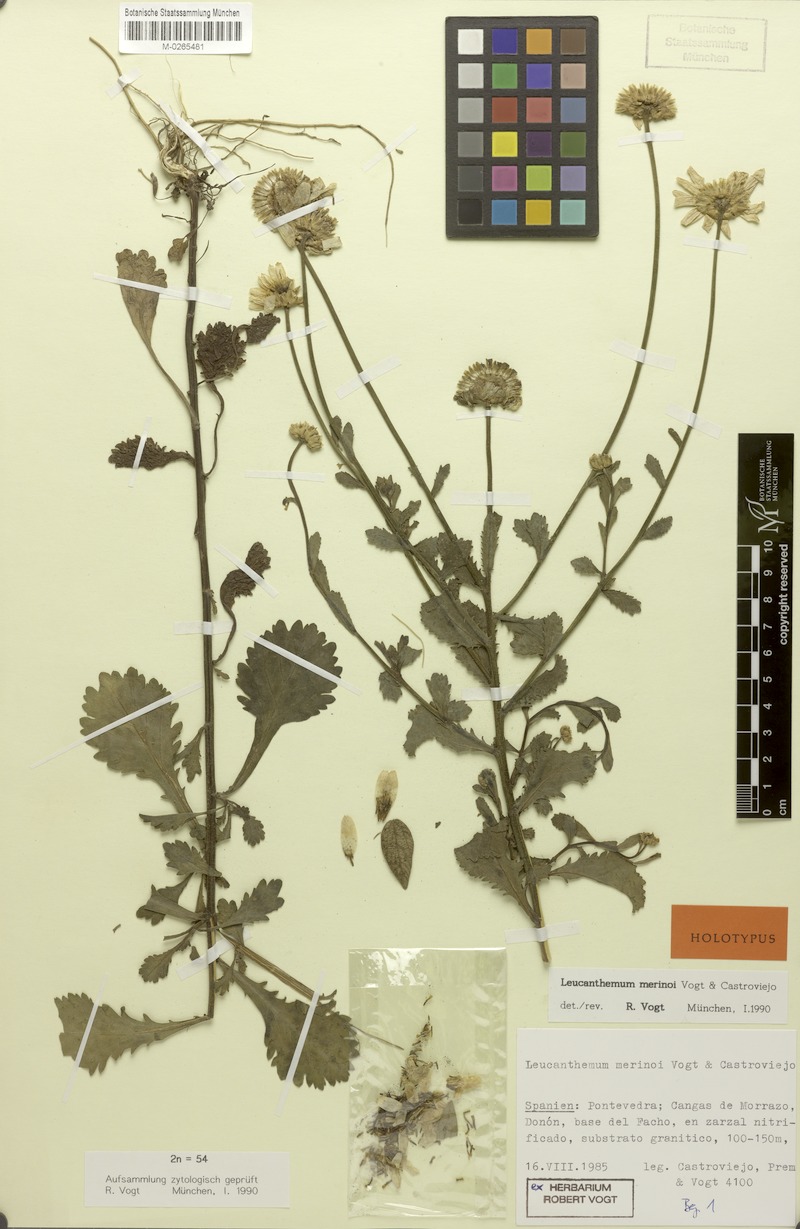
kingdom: Plantae
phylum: Tracheophyta
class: Magnoliopsida
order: Asterales
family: Asteraceae
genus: Leucanthemum
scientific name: Leucanthemum sylvaticum
